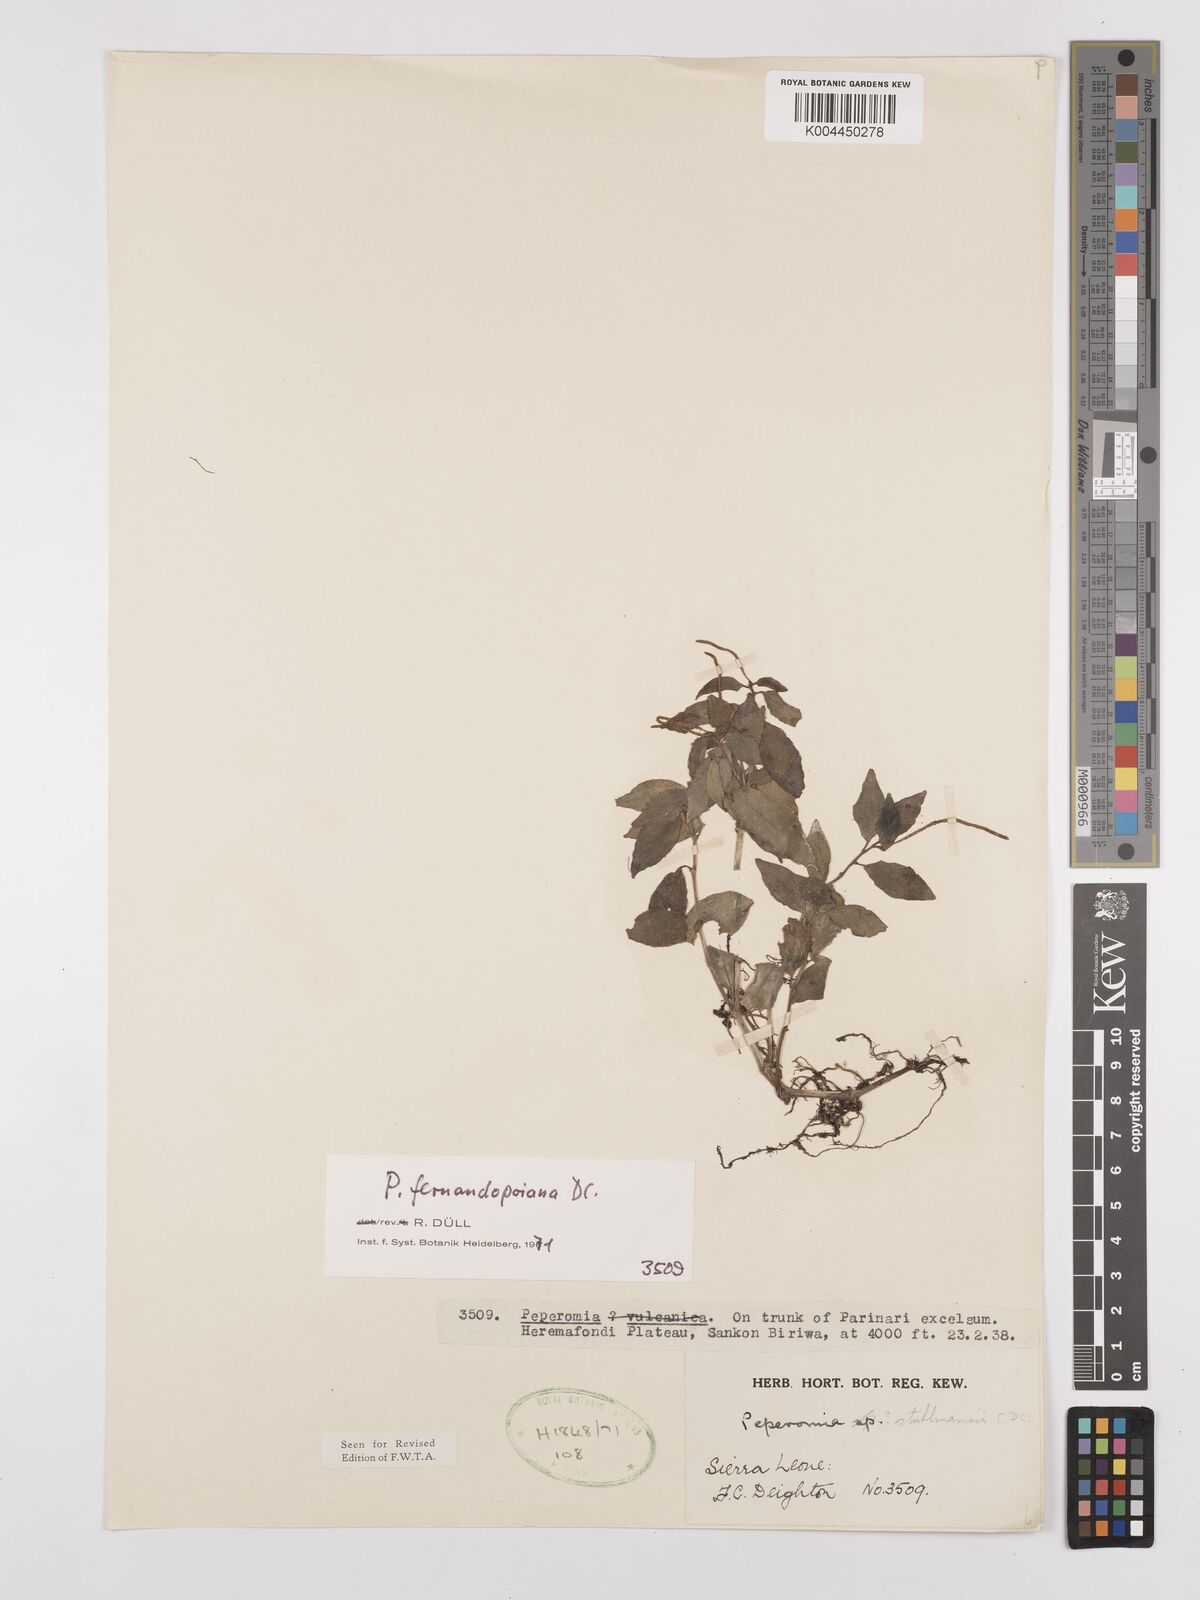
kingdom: Plantae
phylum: Tracheophyta
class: Magnoliopsida
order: Piperales
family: Piperaceae
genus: Peperomia
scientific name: Peperomia fernandeziana
